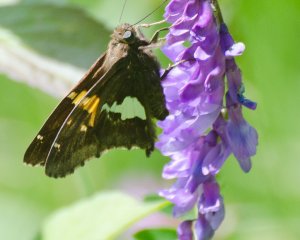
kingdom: Animalia
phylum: Arthropoda
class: Insecta
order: Lepidoptera
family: Hesperiidae
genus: Epargyreus
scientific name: Epargyreus clarus
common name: Silver-spotted Skipper
